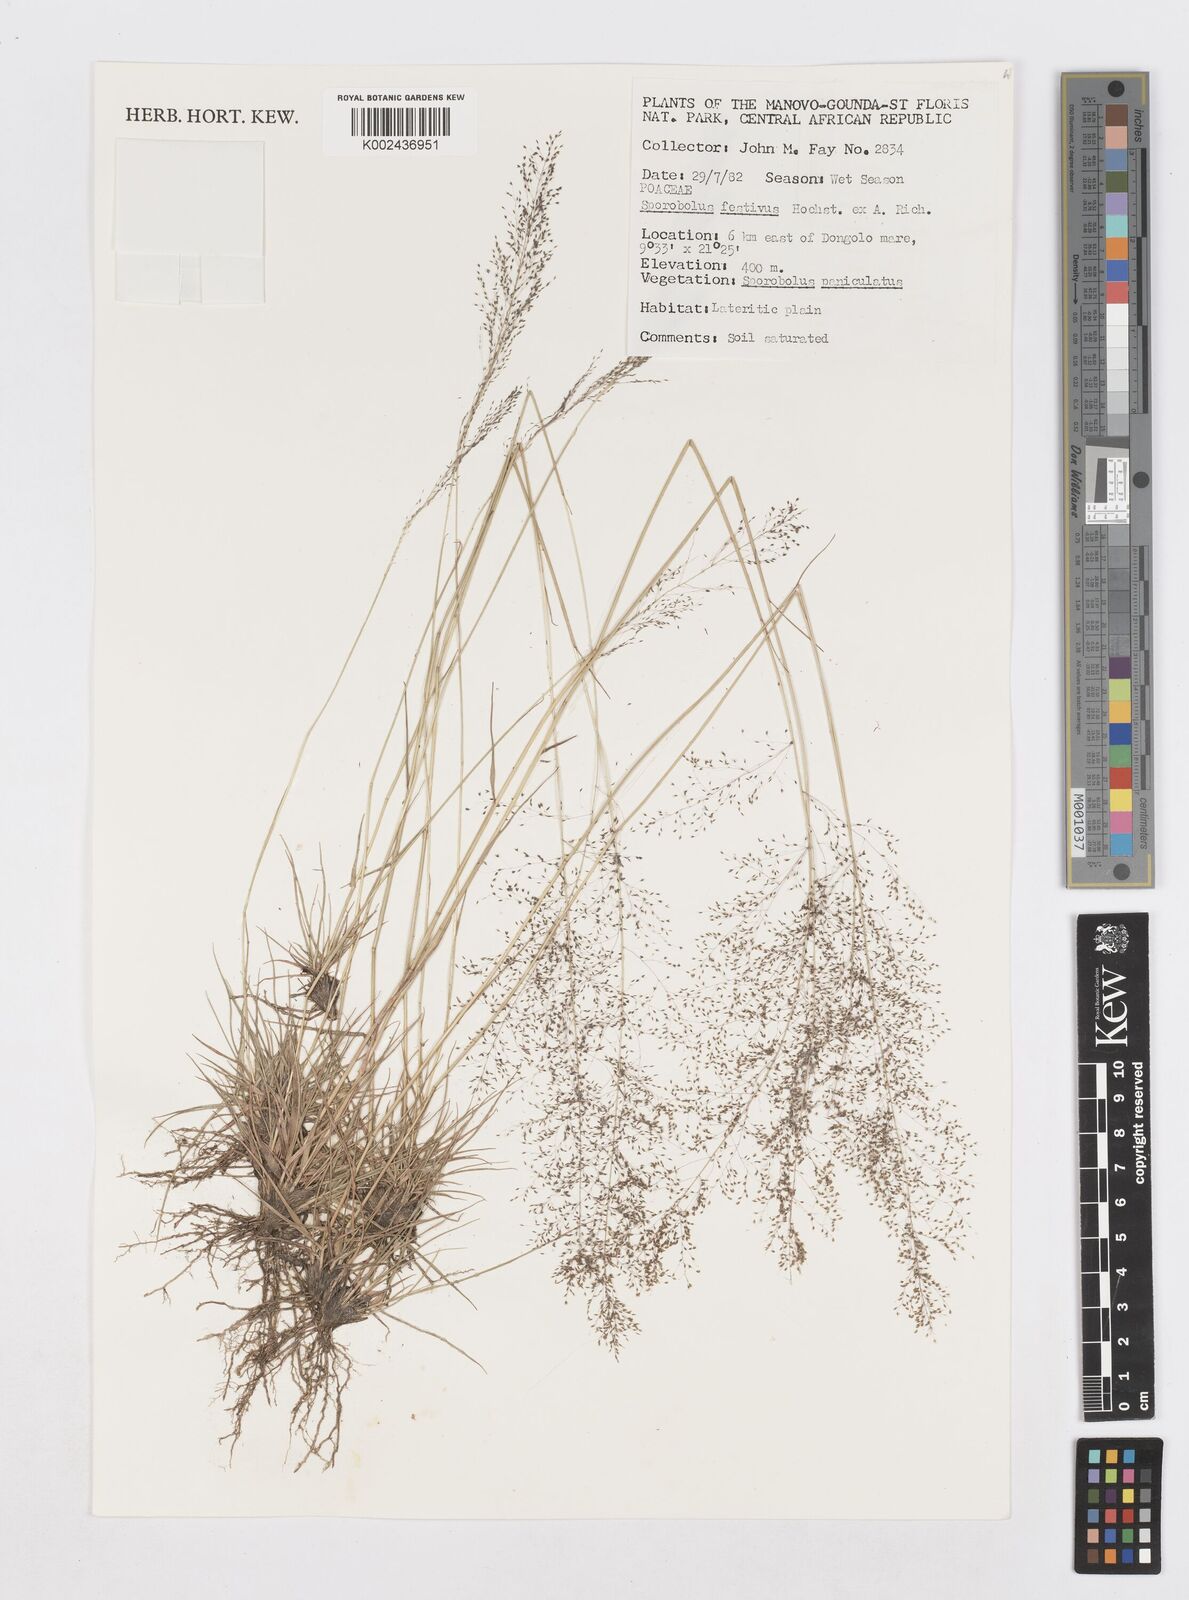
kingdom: Plantae
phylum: Tracheophyta
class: Liliopsida
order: Poales
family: Poaceae
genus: Sporobolus
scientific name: Sporobolus festivus
